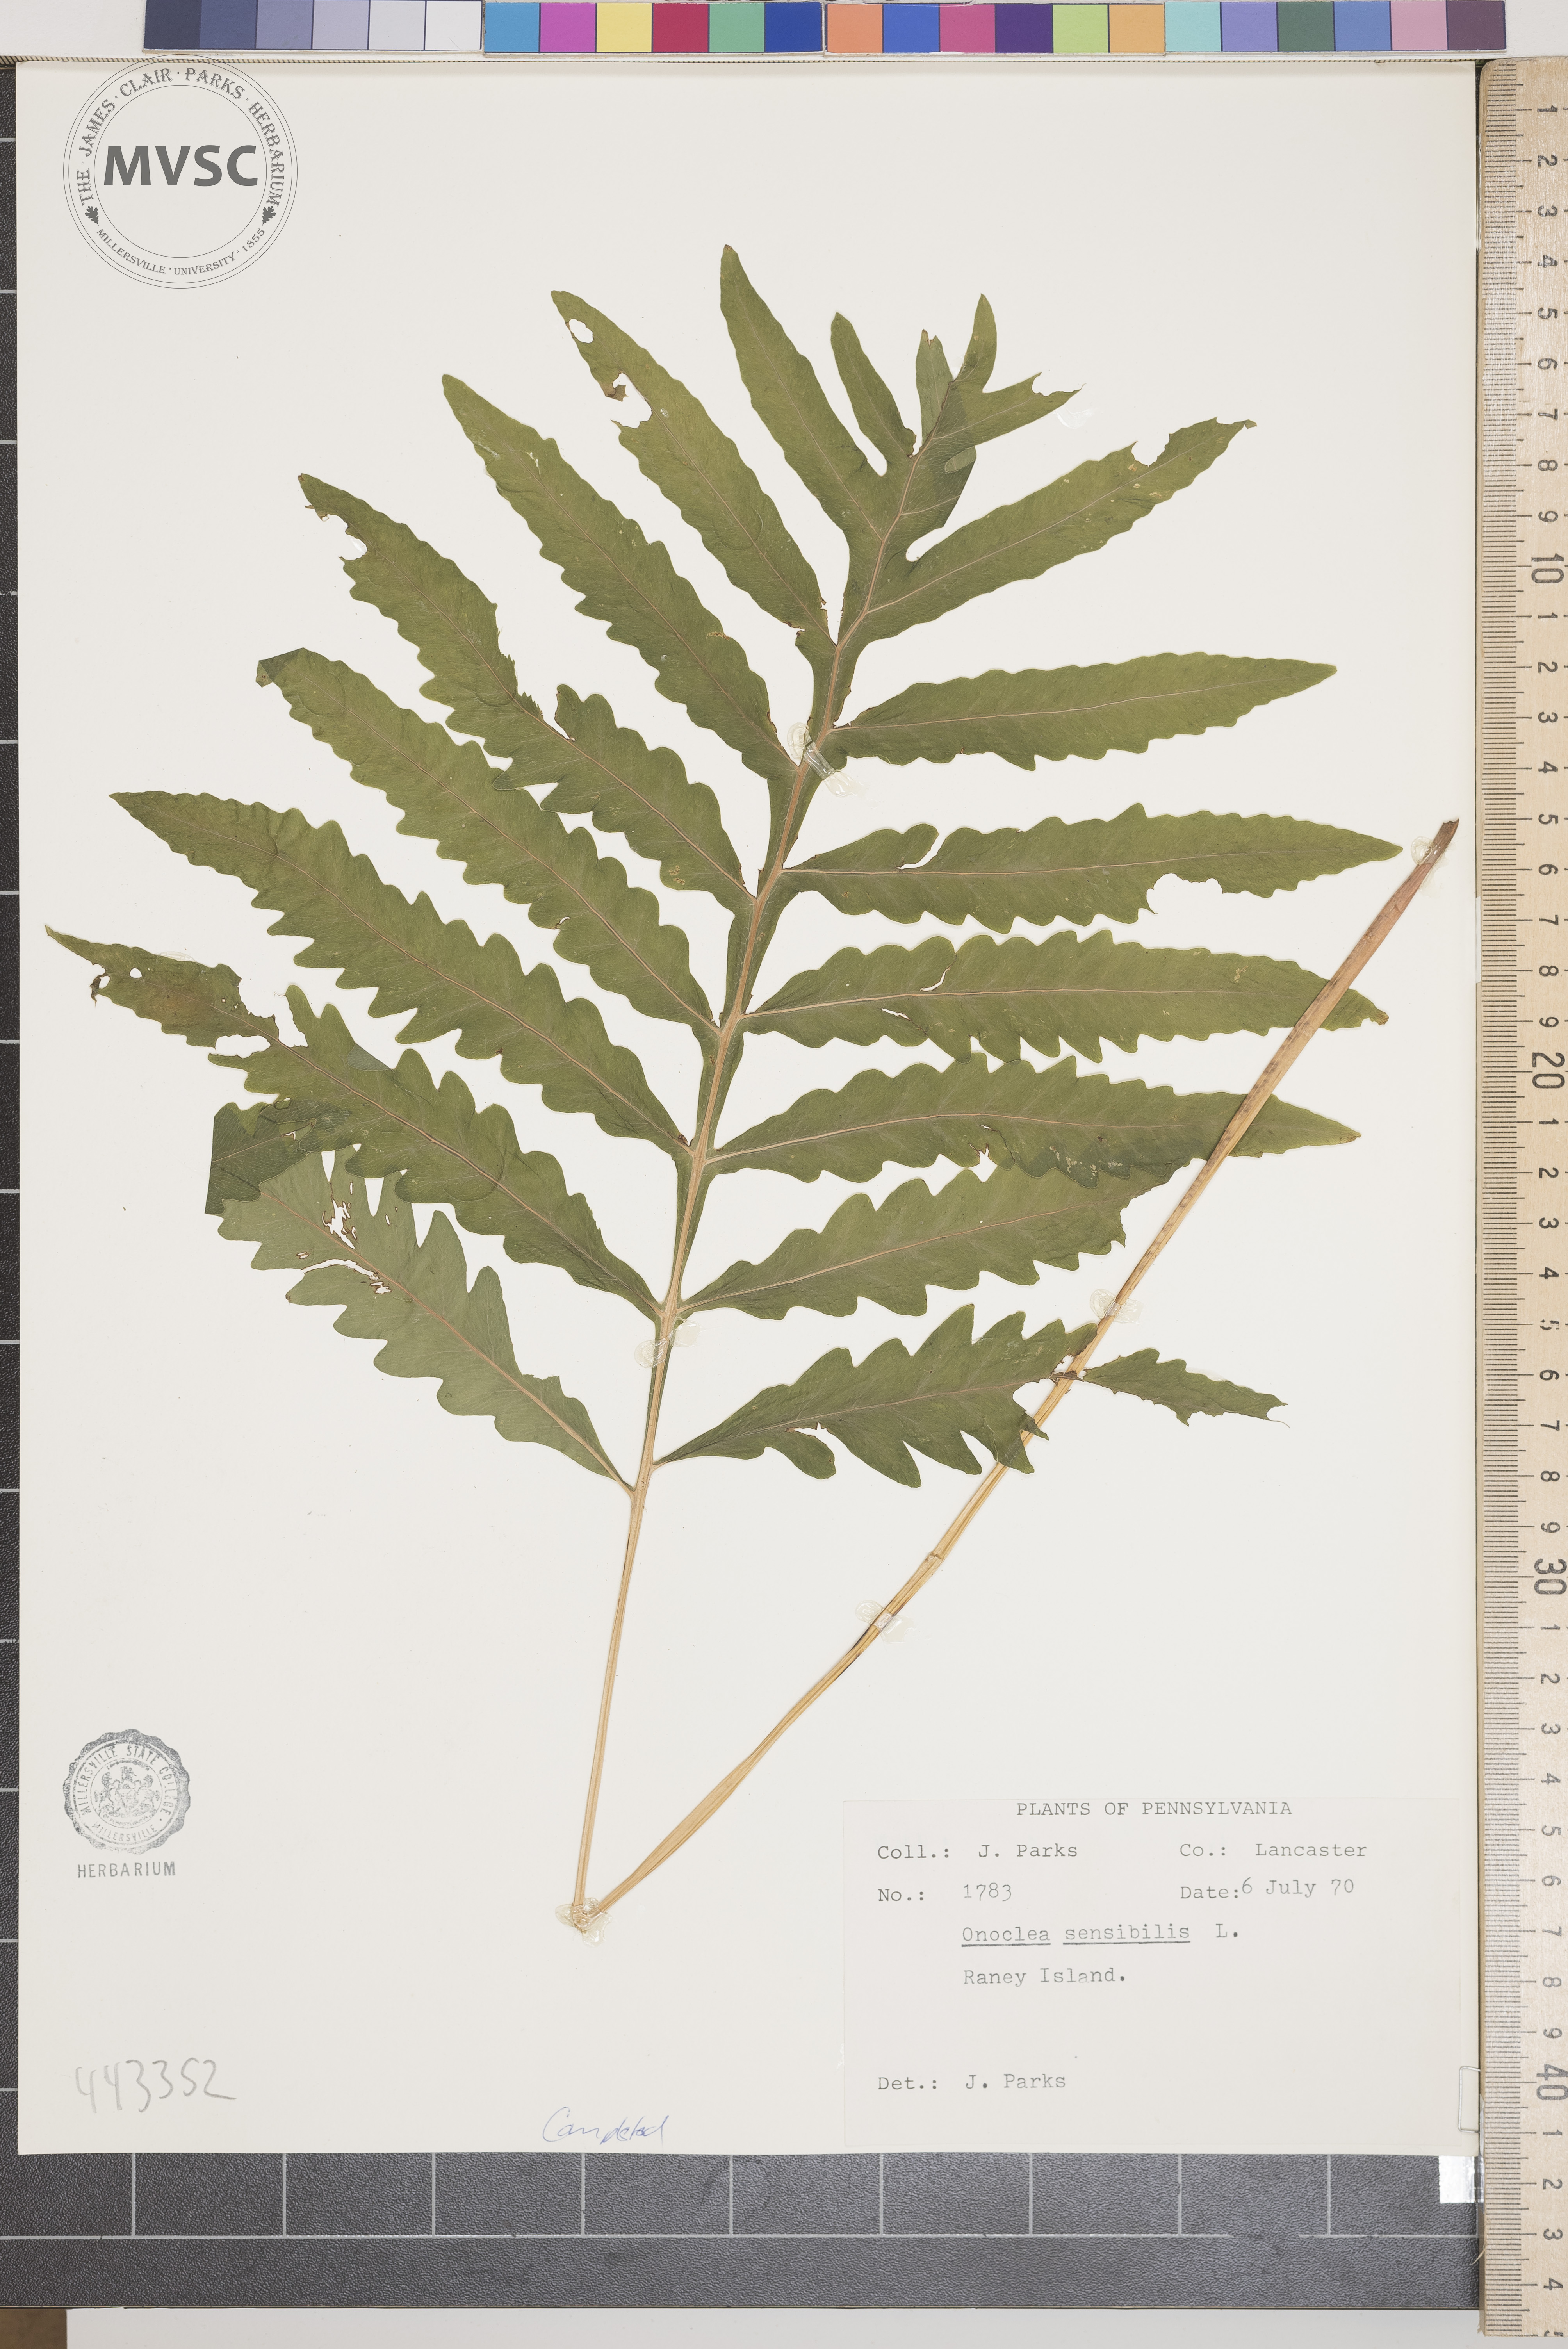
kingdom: Plantae
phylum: Tracheophyta
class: Polypodiopsida
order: Polypodiales
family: Onocleaceae
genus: Onoclea
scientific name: Onoclea sensibilis
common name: Sensitive fern
